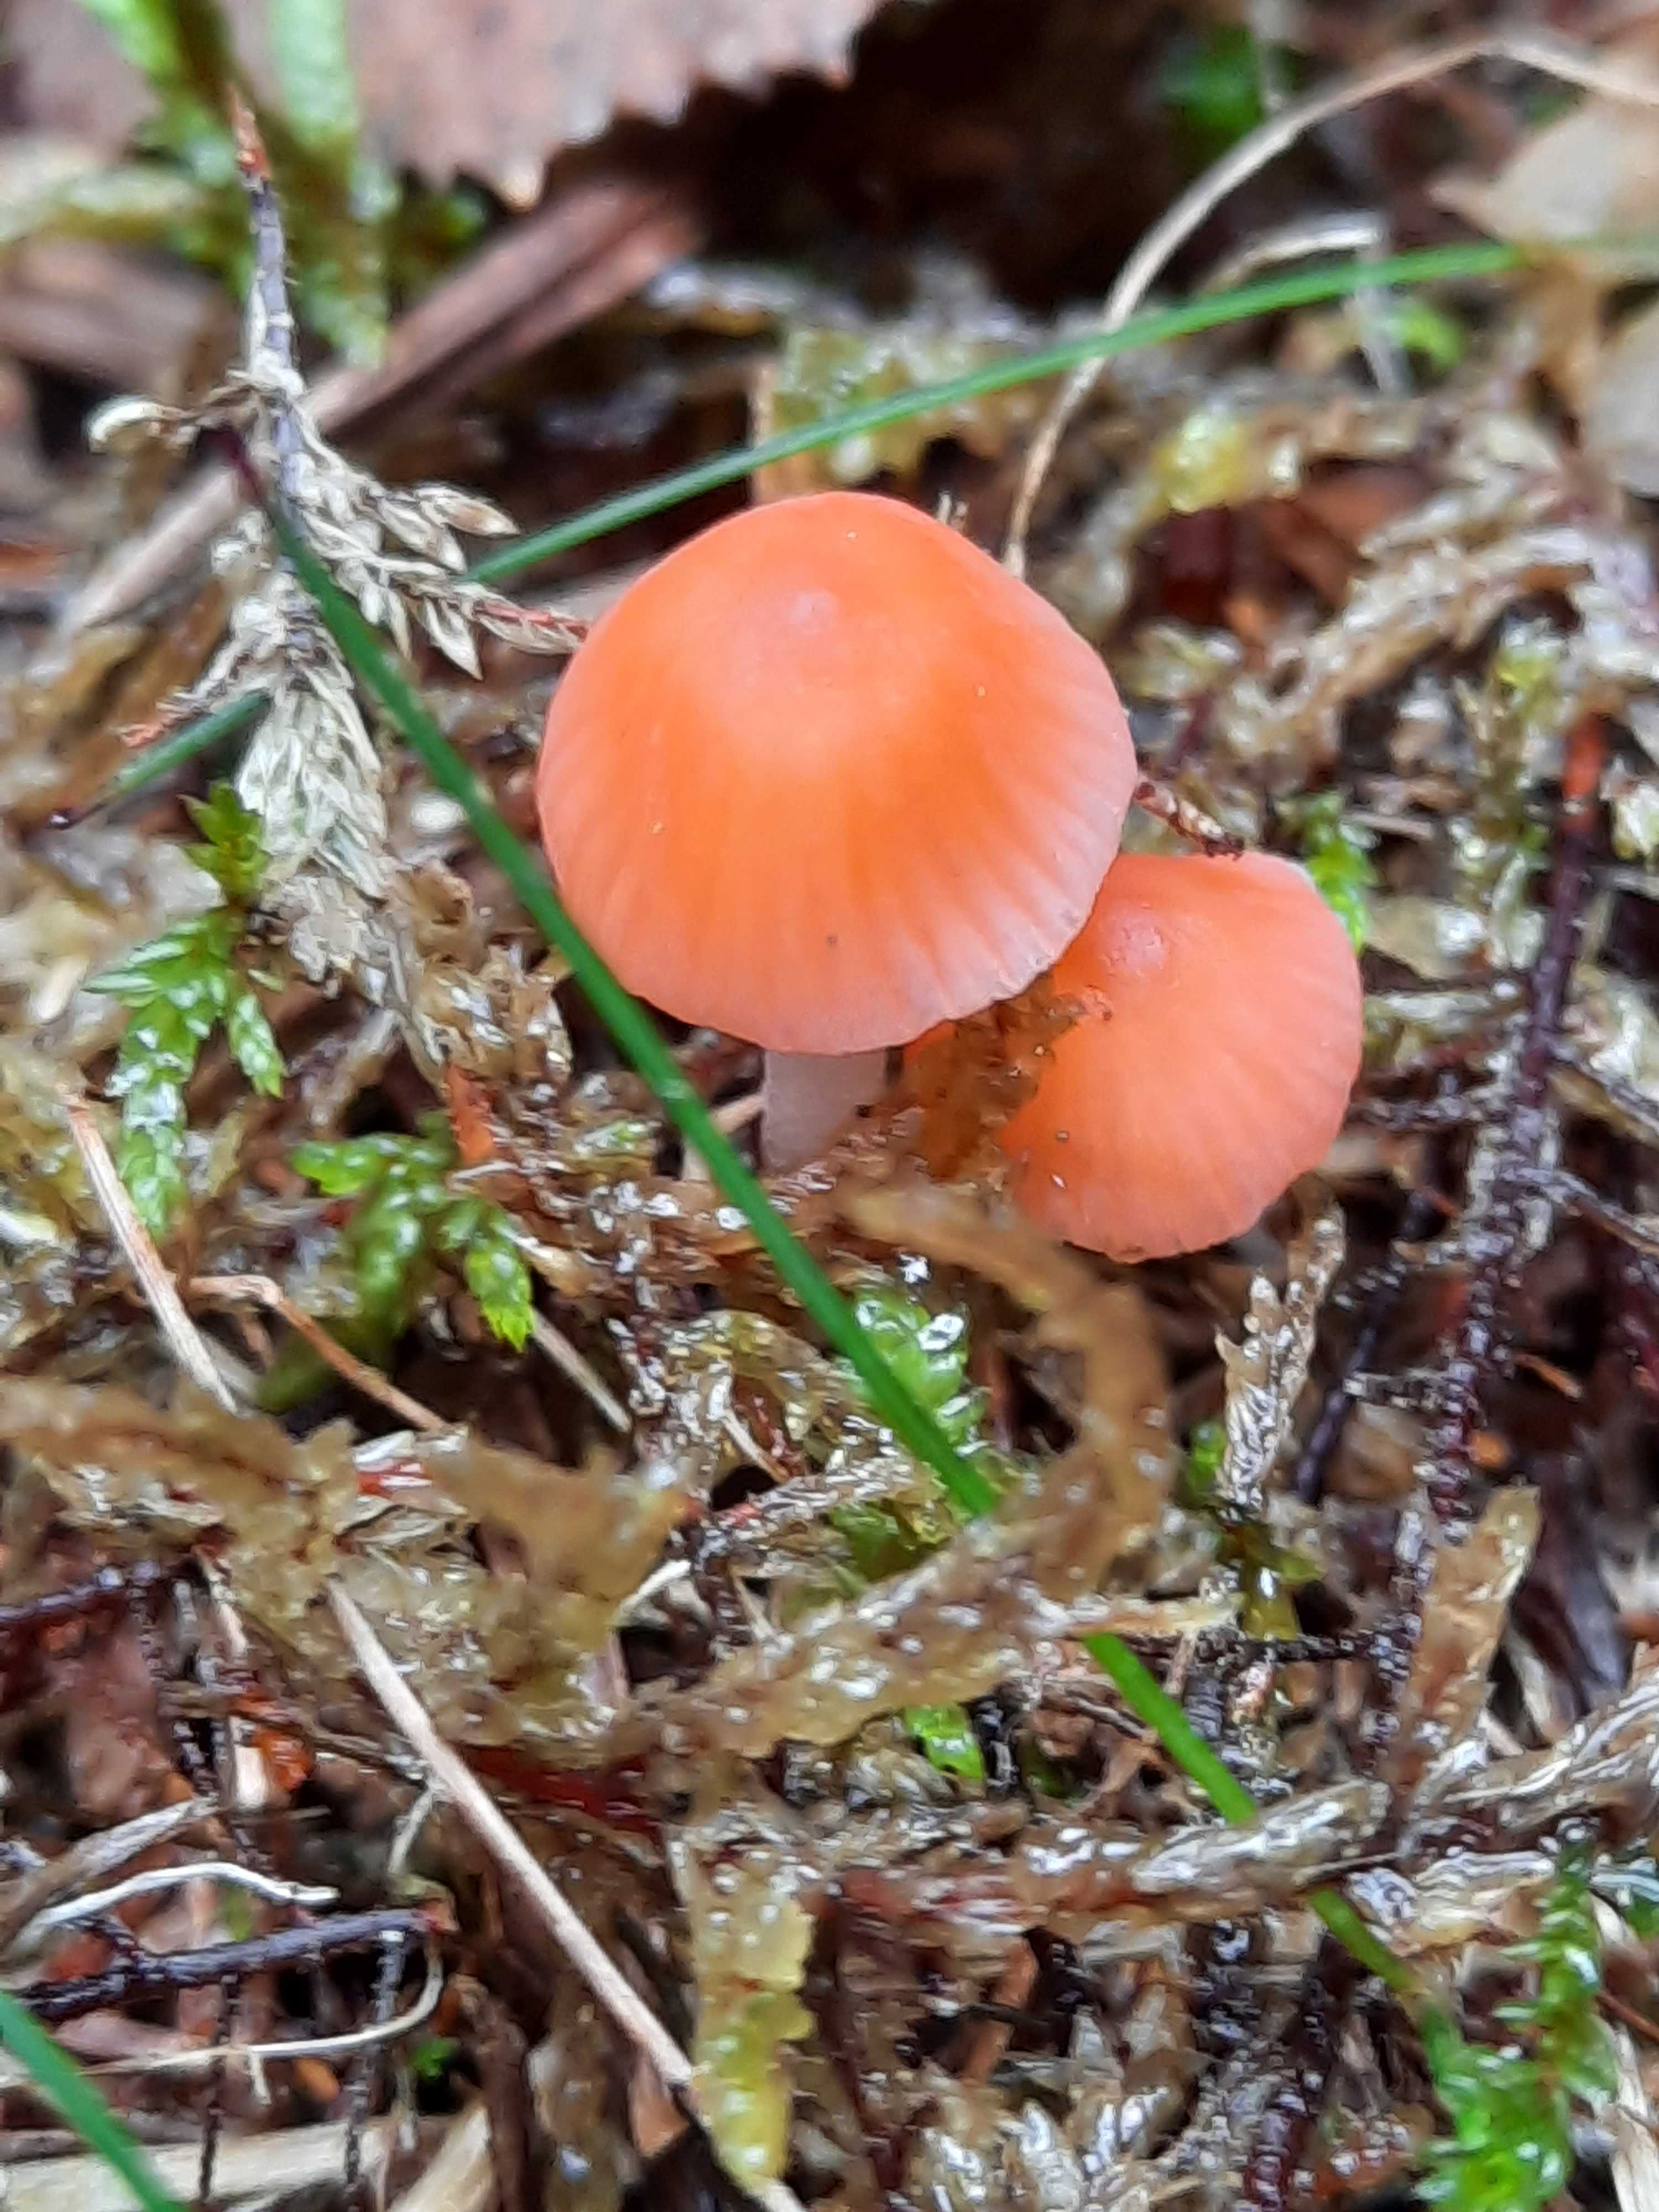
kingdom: Fungi
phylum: Basidiomycota
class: Agaricomycetes
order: Agaricales
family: Mycenaceae
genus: Atheniella
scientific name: Atheniella adonis
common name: rønnerød huesvamp
